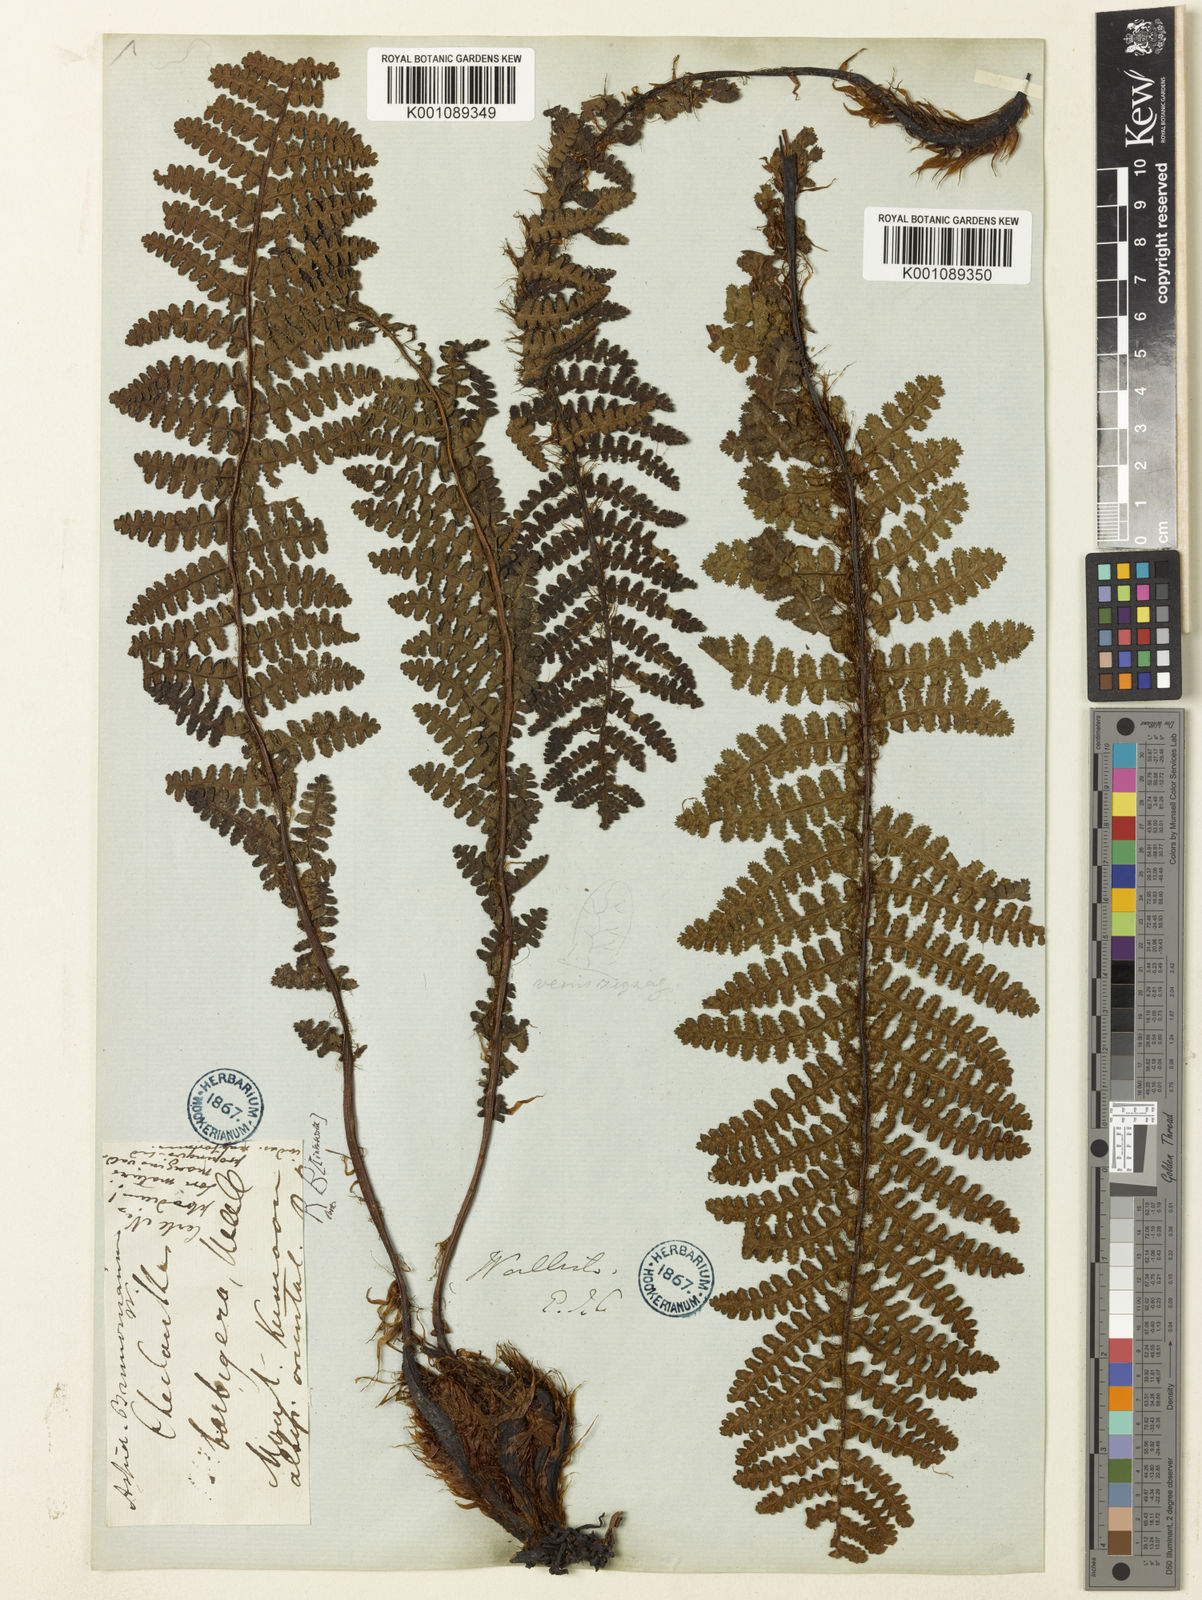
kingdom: Plantae
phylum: Tracheophyta
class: Polypodiopsida
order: Polypodiales
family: Athyriaceae
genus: Athyrium
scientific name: Athyrium wallichianum
